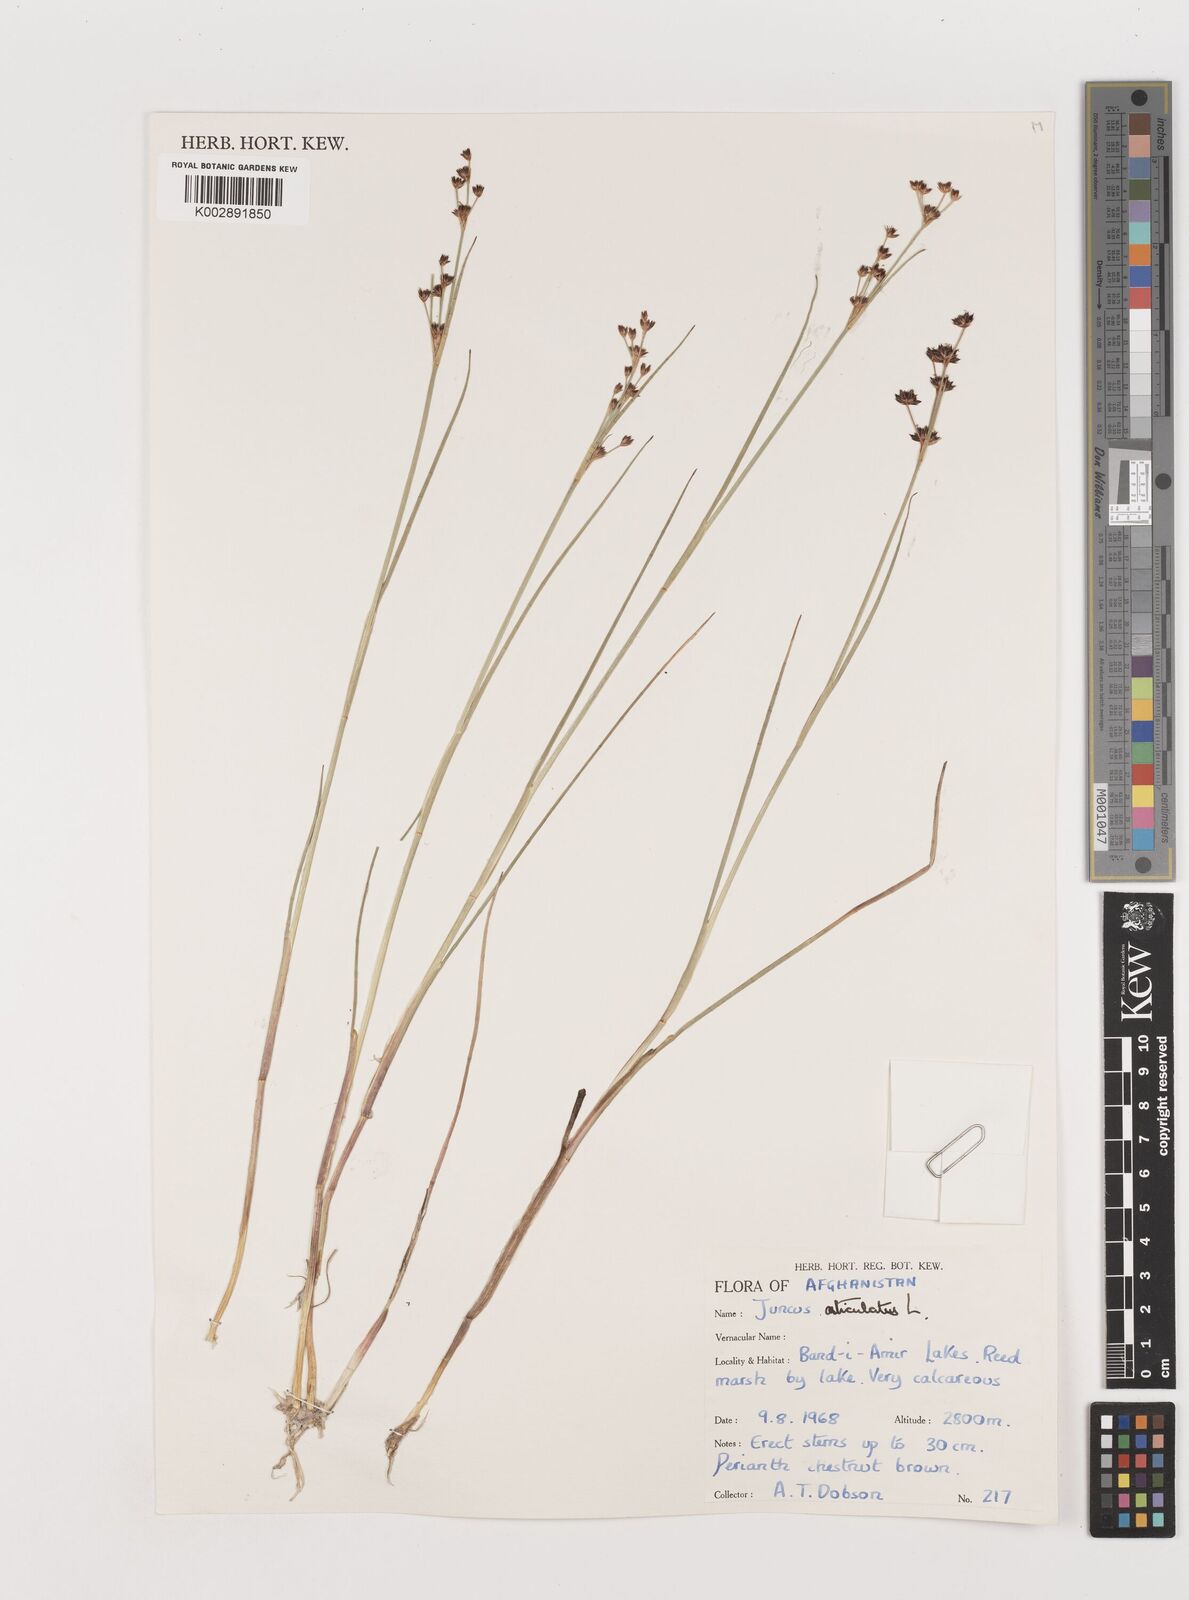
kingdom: Plantae
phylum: Tracheophyta
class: Liliopsida
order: Poales
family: Juncaceae
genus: Juncus
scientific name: Juncus articulatus
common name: Jointed rush
